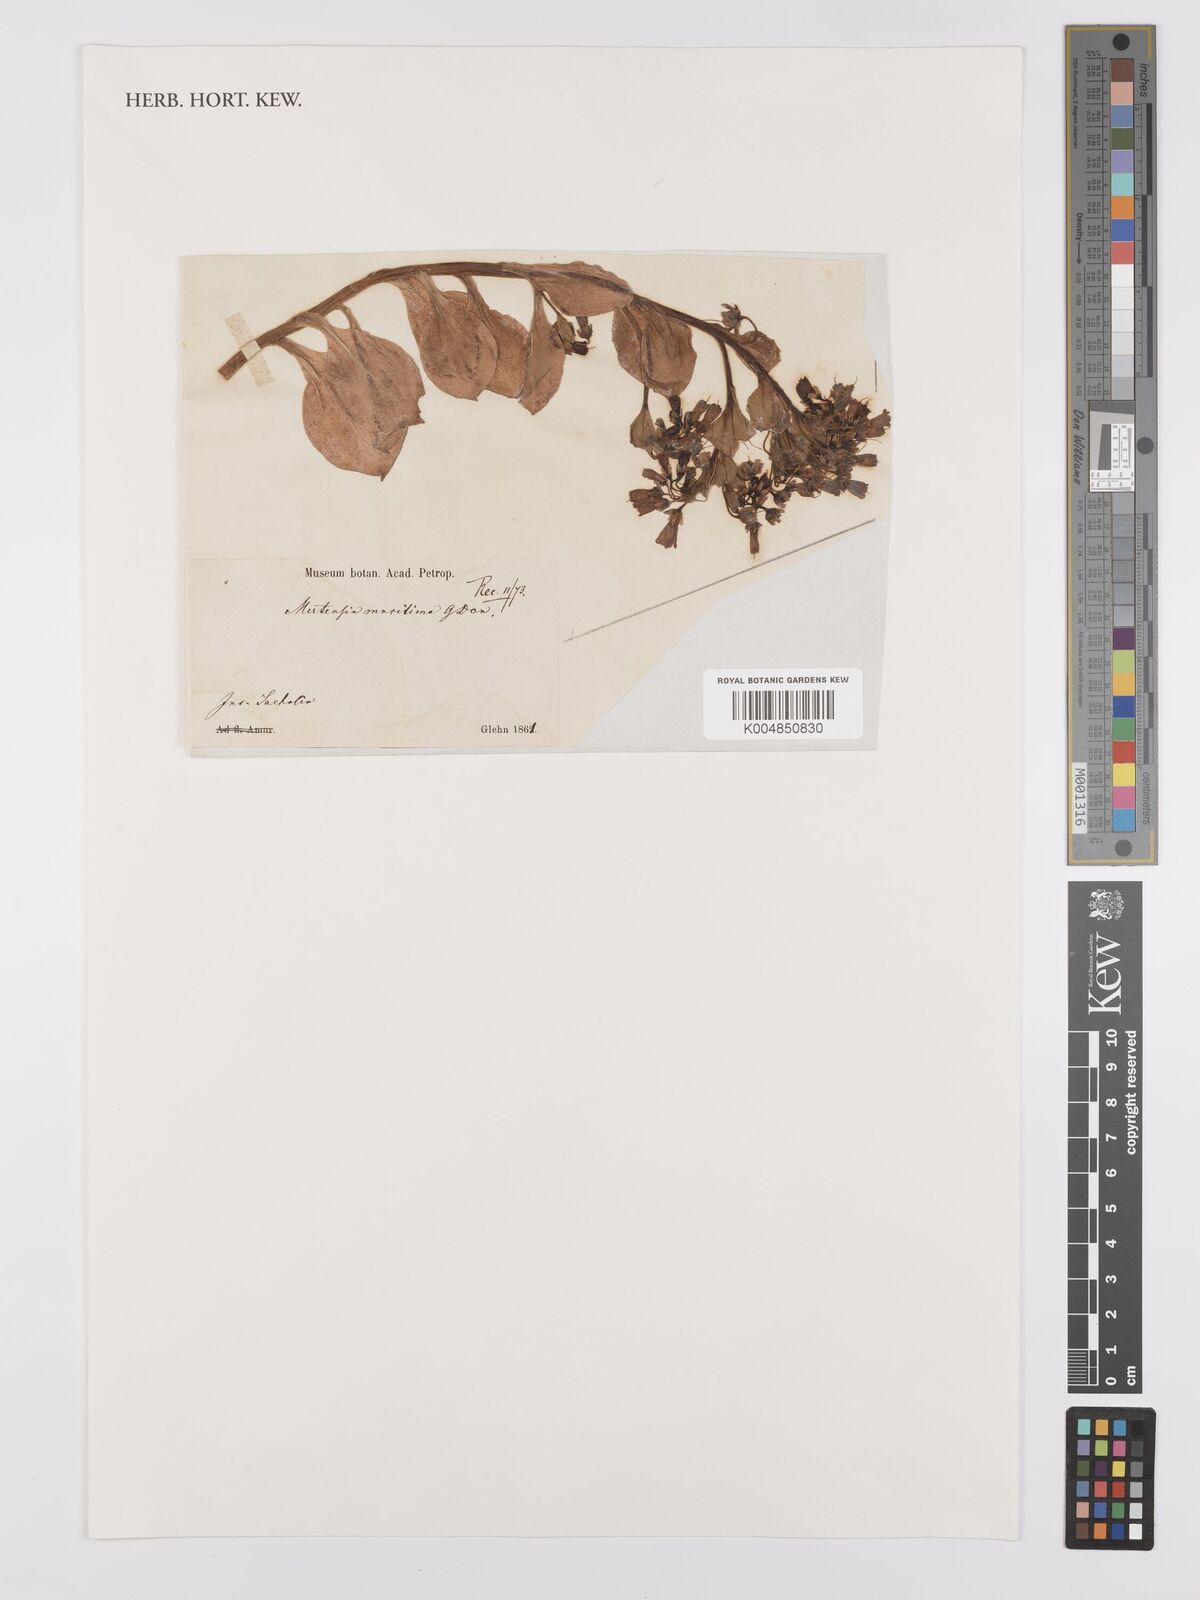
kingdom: Plantae
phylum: Tracheophyta
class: Magnoliopsida
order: Boraginales
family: Boraginaceae
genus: Mertensia
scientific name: Mertensia maritima
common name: Oysterplant
